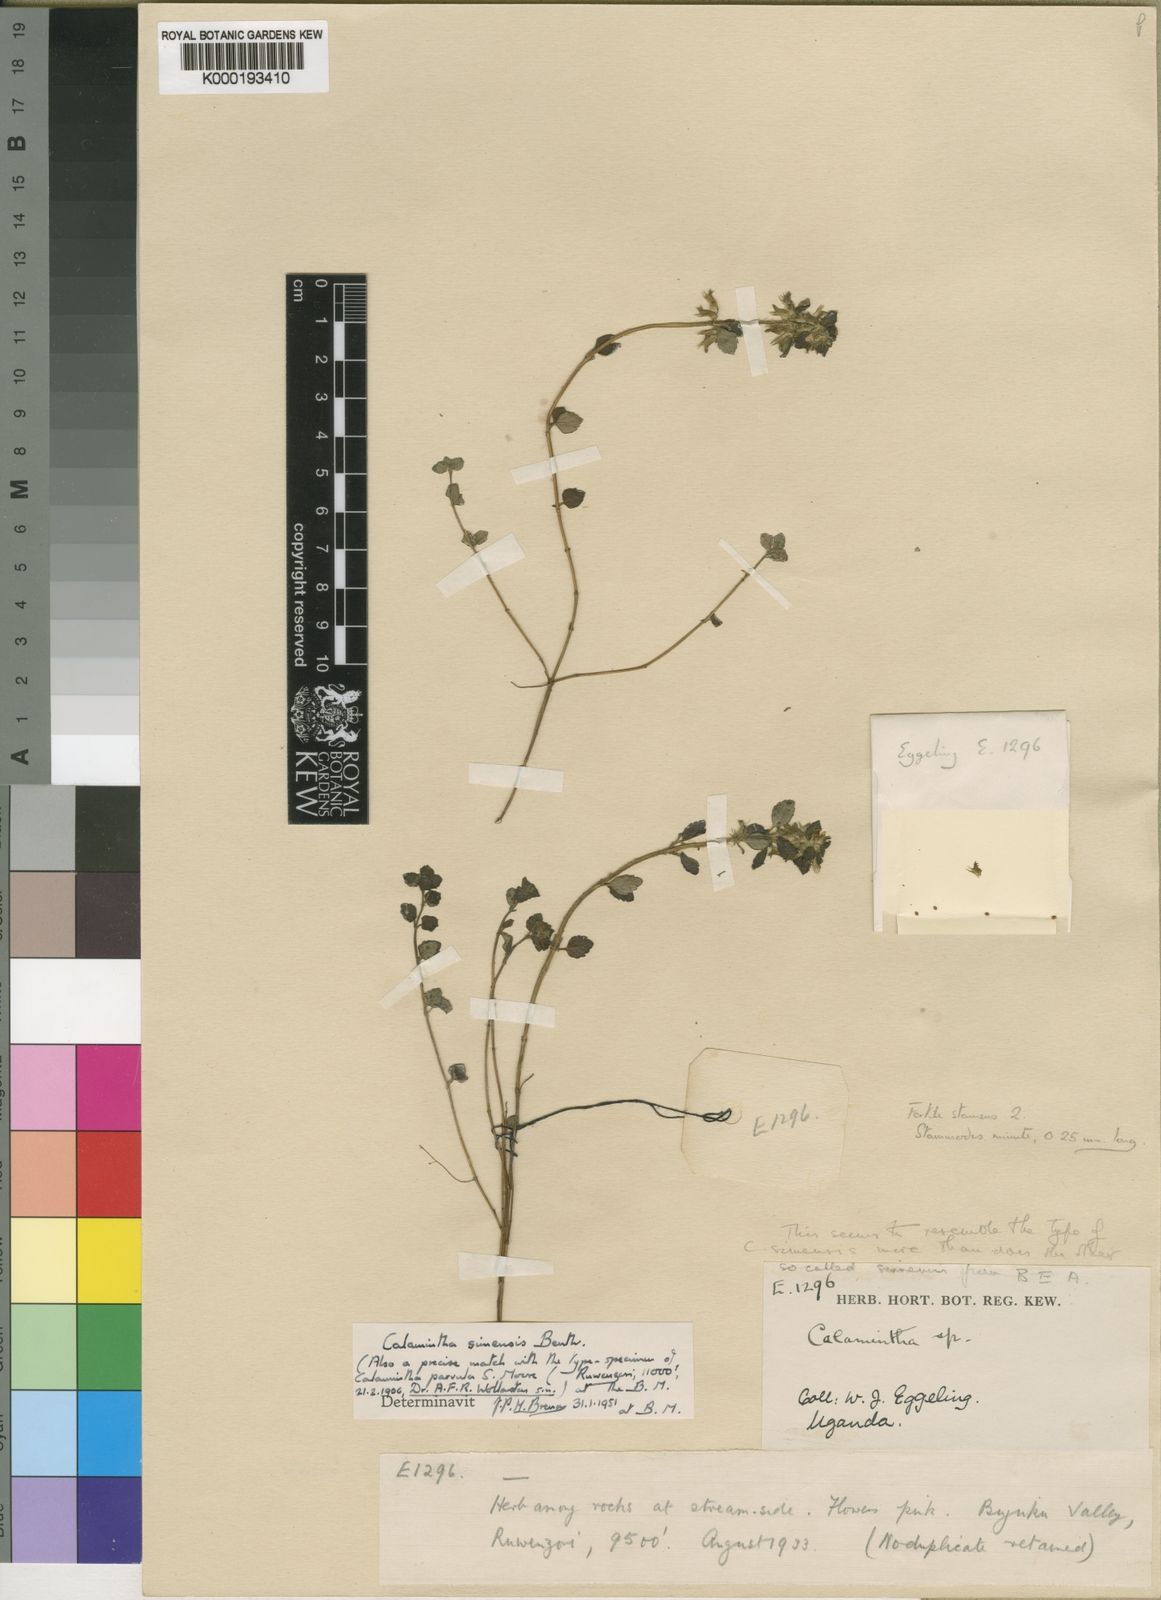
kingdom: Plantae
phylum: Tracheophyta
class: Magnoliopsida
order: Lamiales
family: Lamiaceae
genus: Clinopodium
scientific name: Clinopodium
